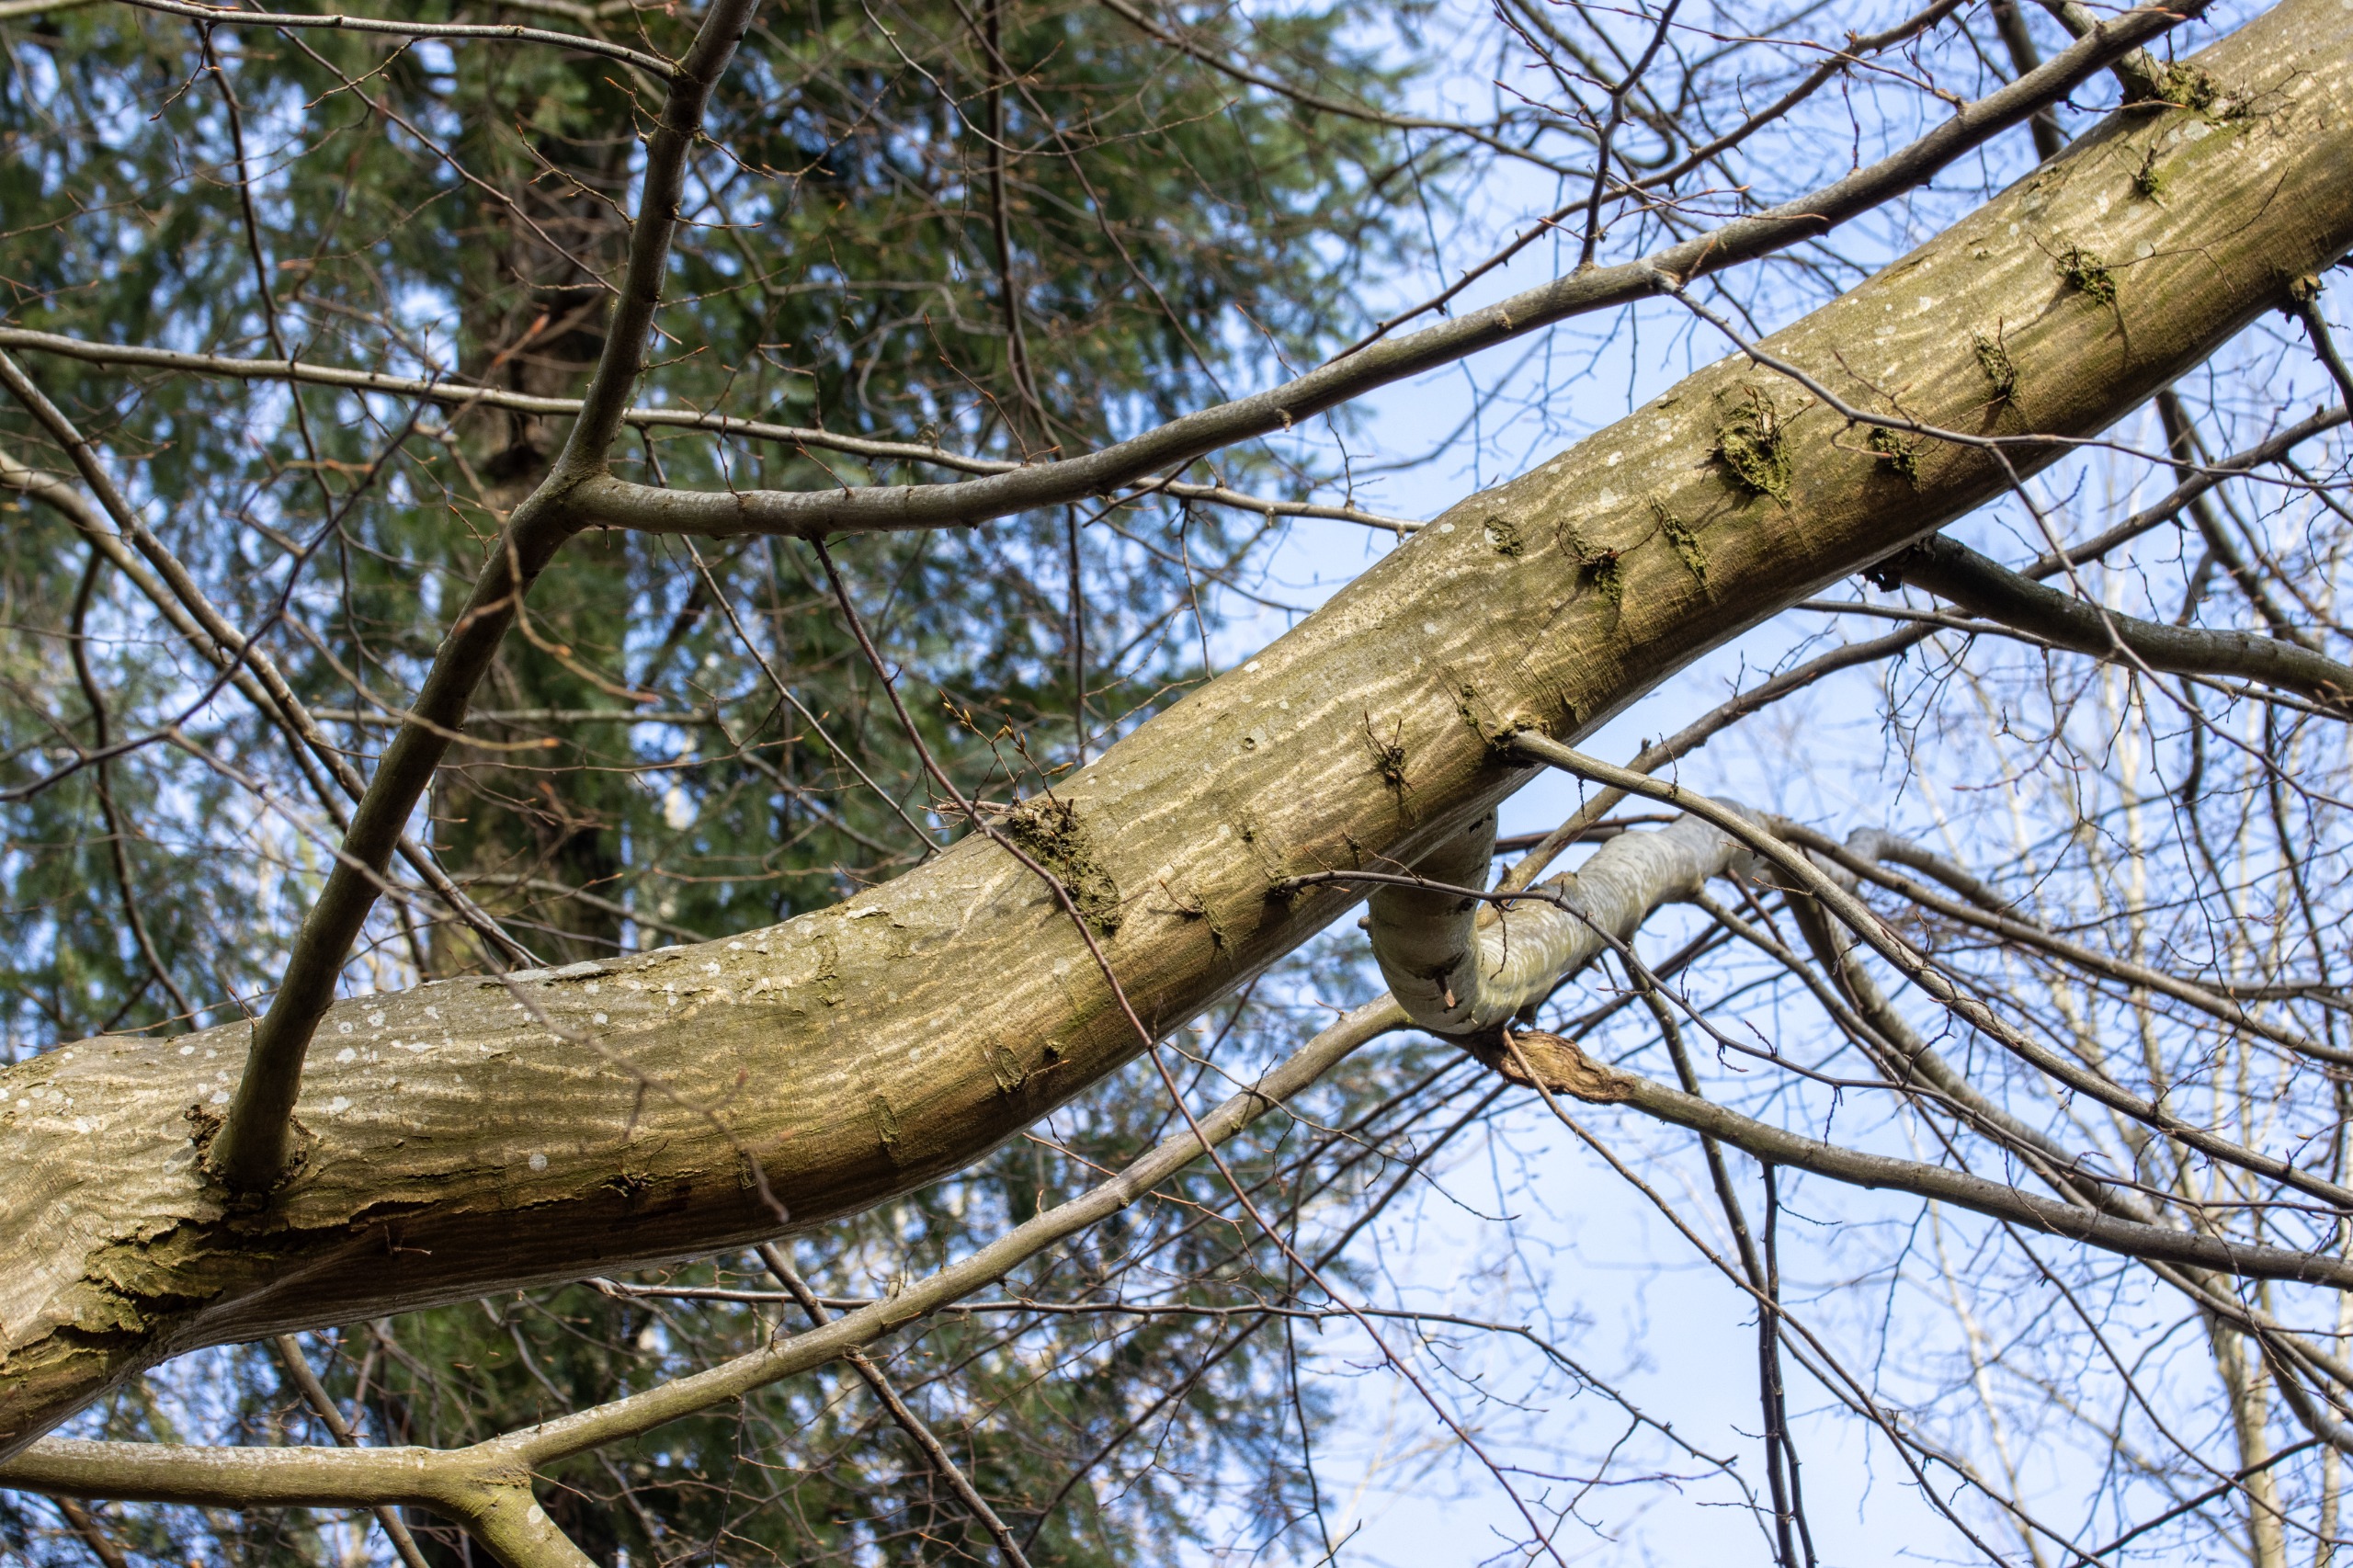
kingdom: Plantae
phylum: Tracheophyta
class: Magnoliopsida
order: Fagales
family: Betulaceae
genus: Carpinus
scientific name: Carpinus betulus
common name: Avnbøg
